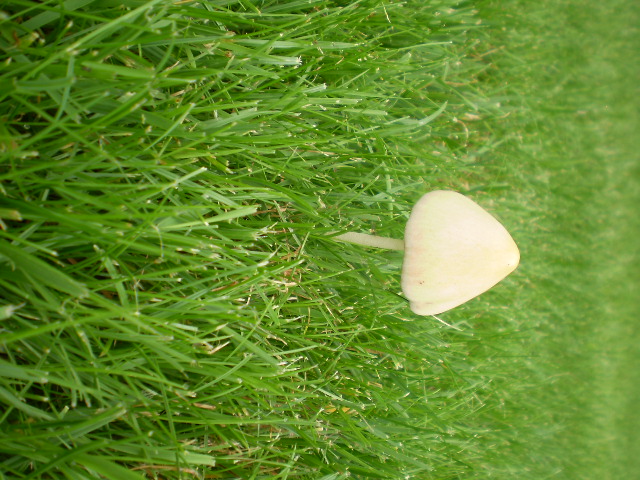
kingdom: Fungi
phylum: Basidiomycota
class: Agaricomycetes
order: Agaricales
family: Bolbitiaceae
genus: Conocybe
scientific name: Conocybe apala
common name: mælkehvid keglehat
